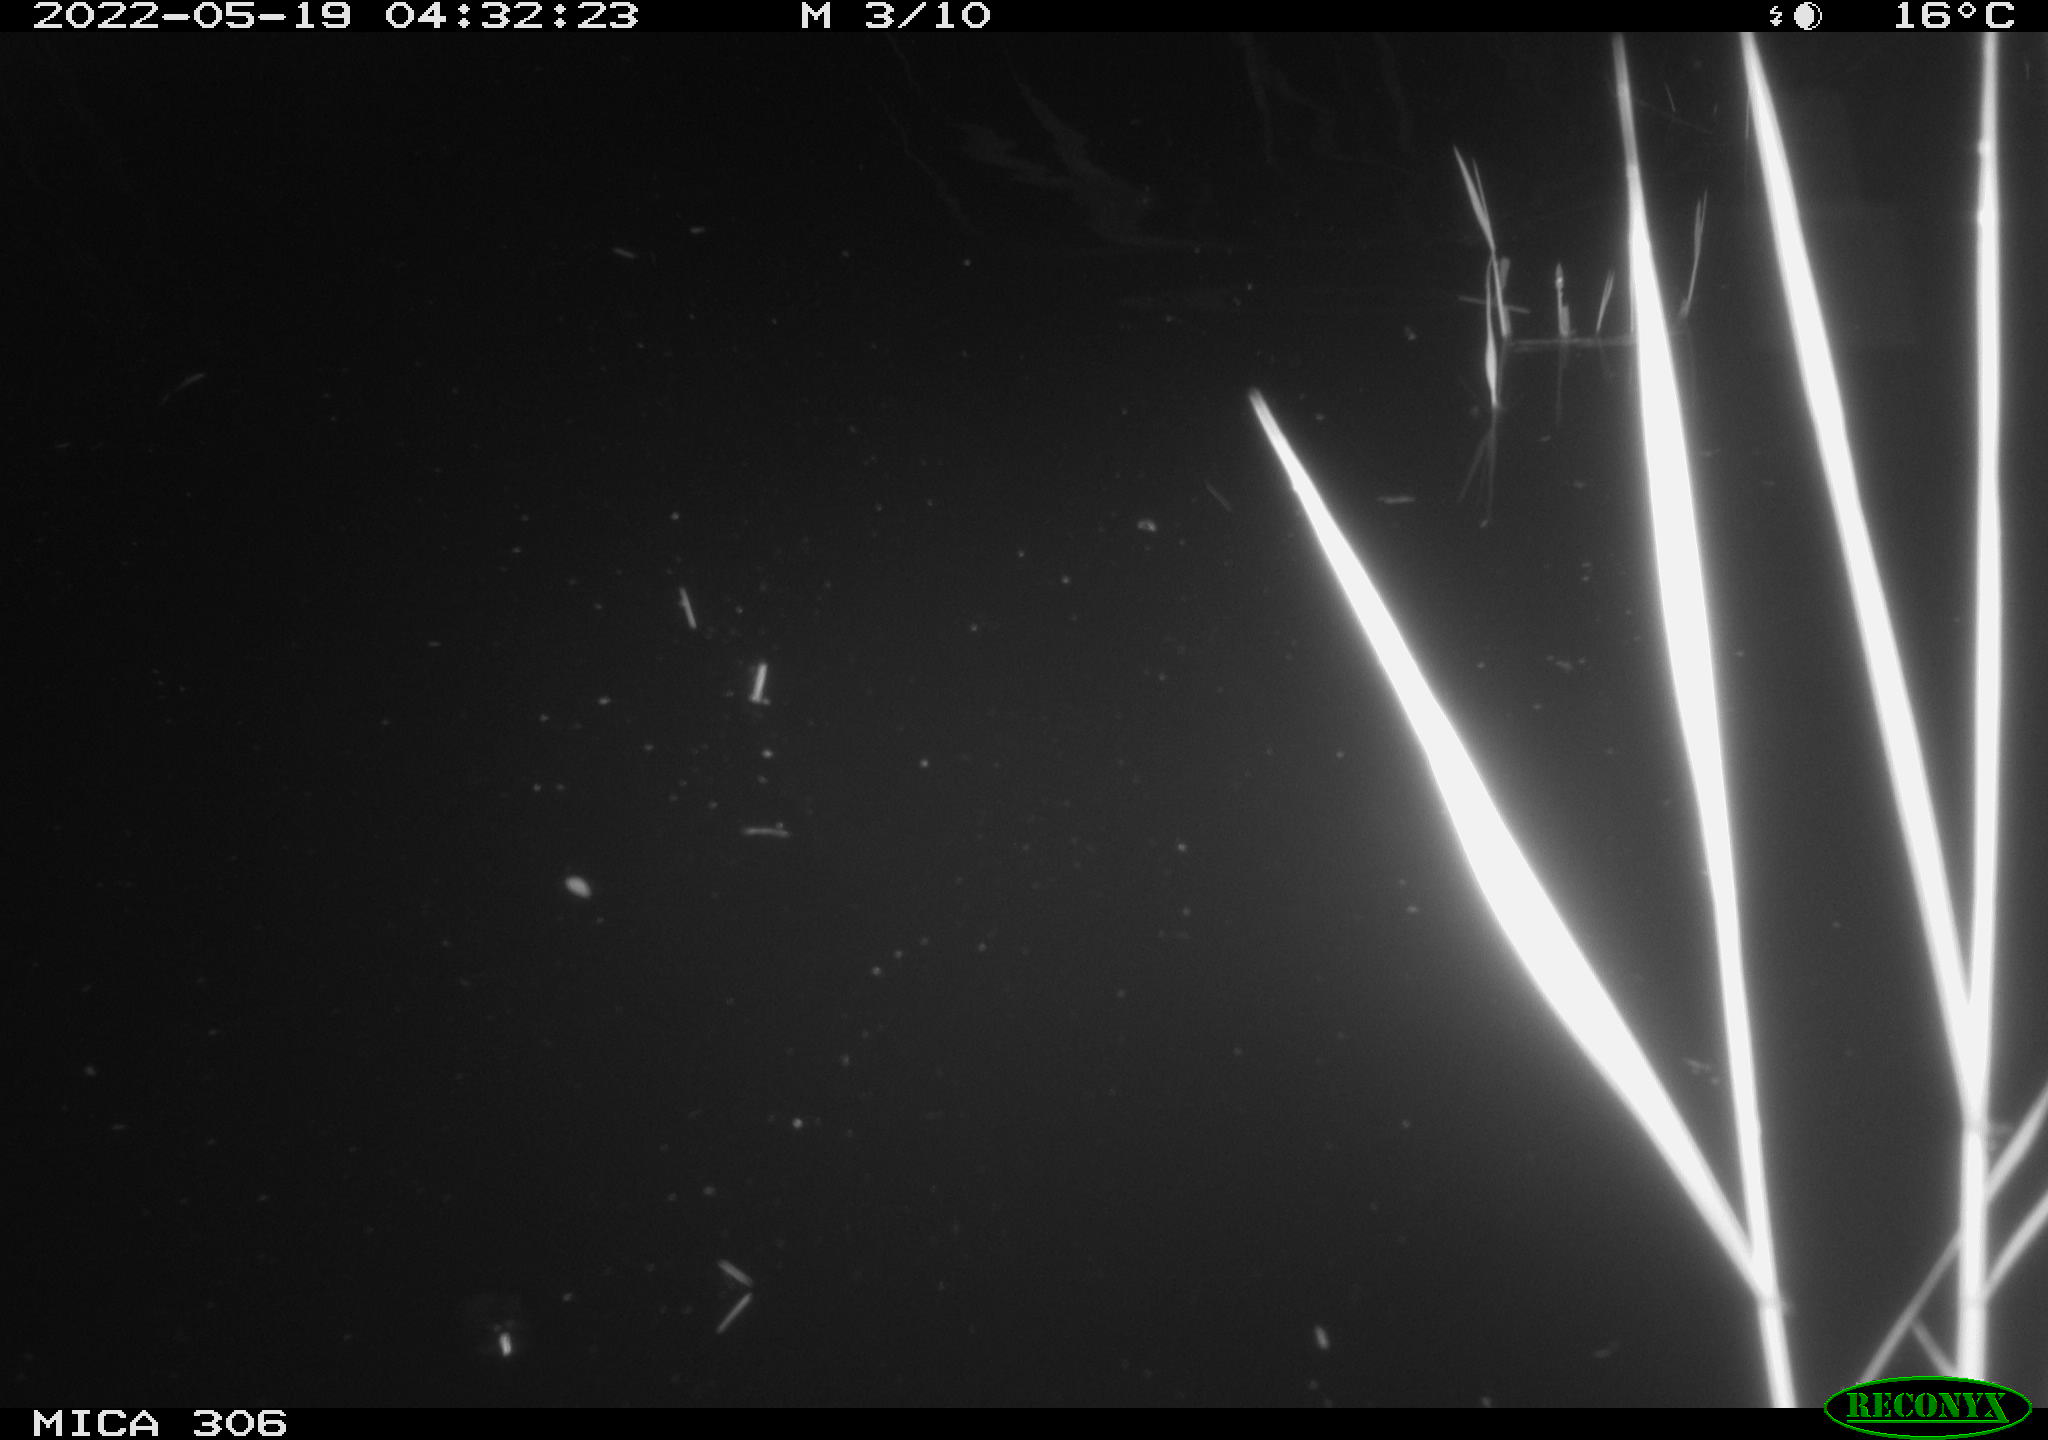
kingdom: Animalia
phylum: Chordata
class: Aves
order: Gruiformes
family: Rallidae
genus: Gallinula
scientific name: Gallinula chloropus
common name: Common moorhen
